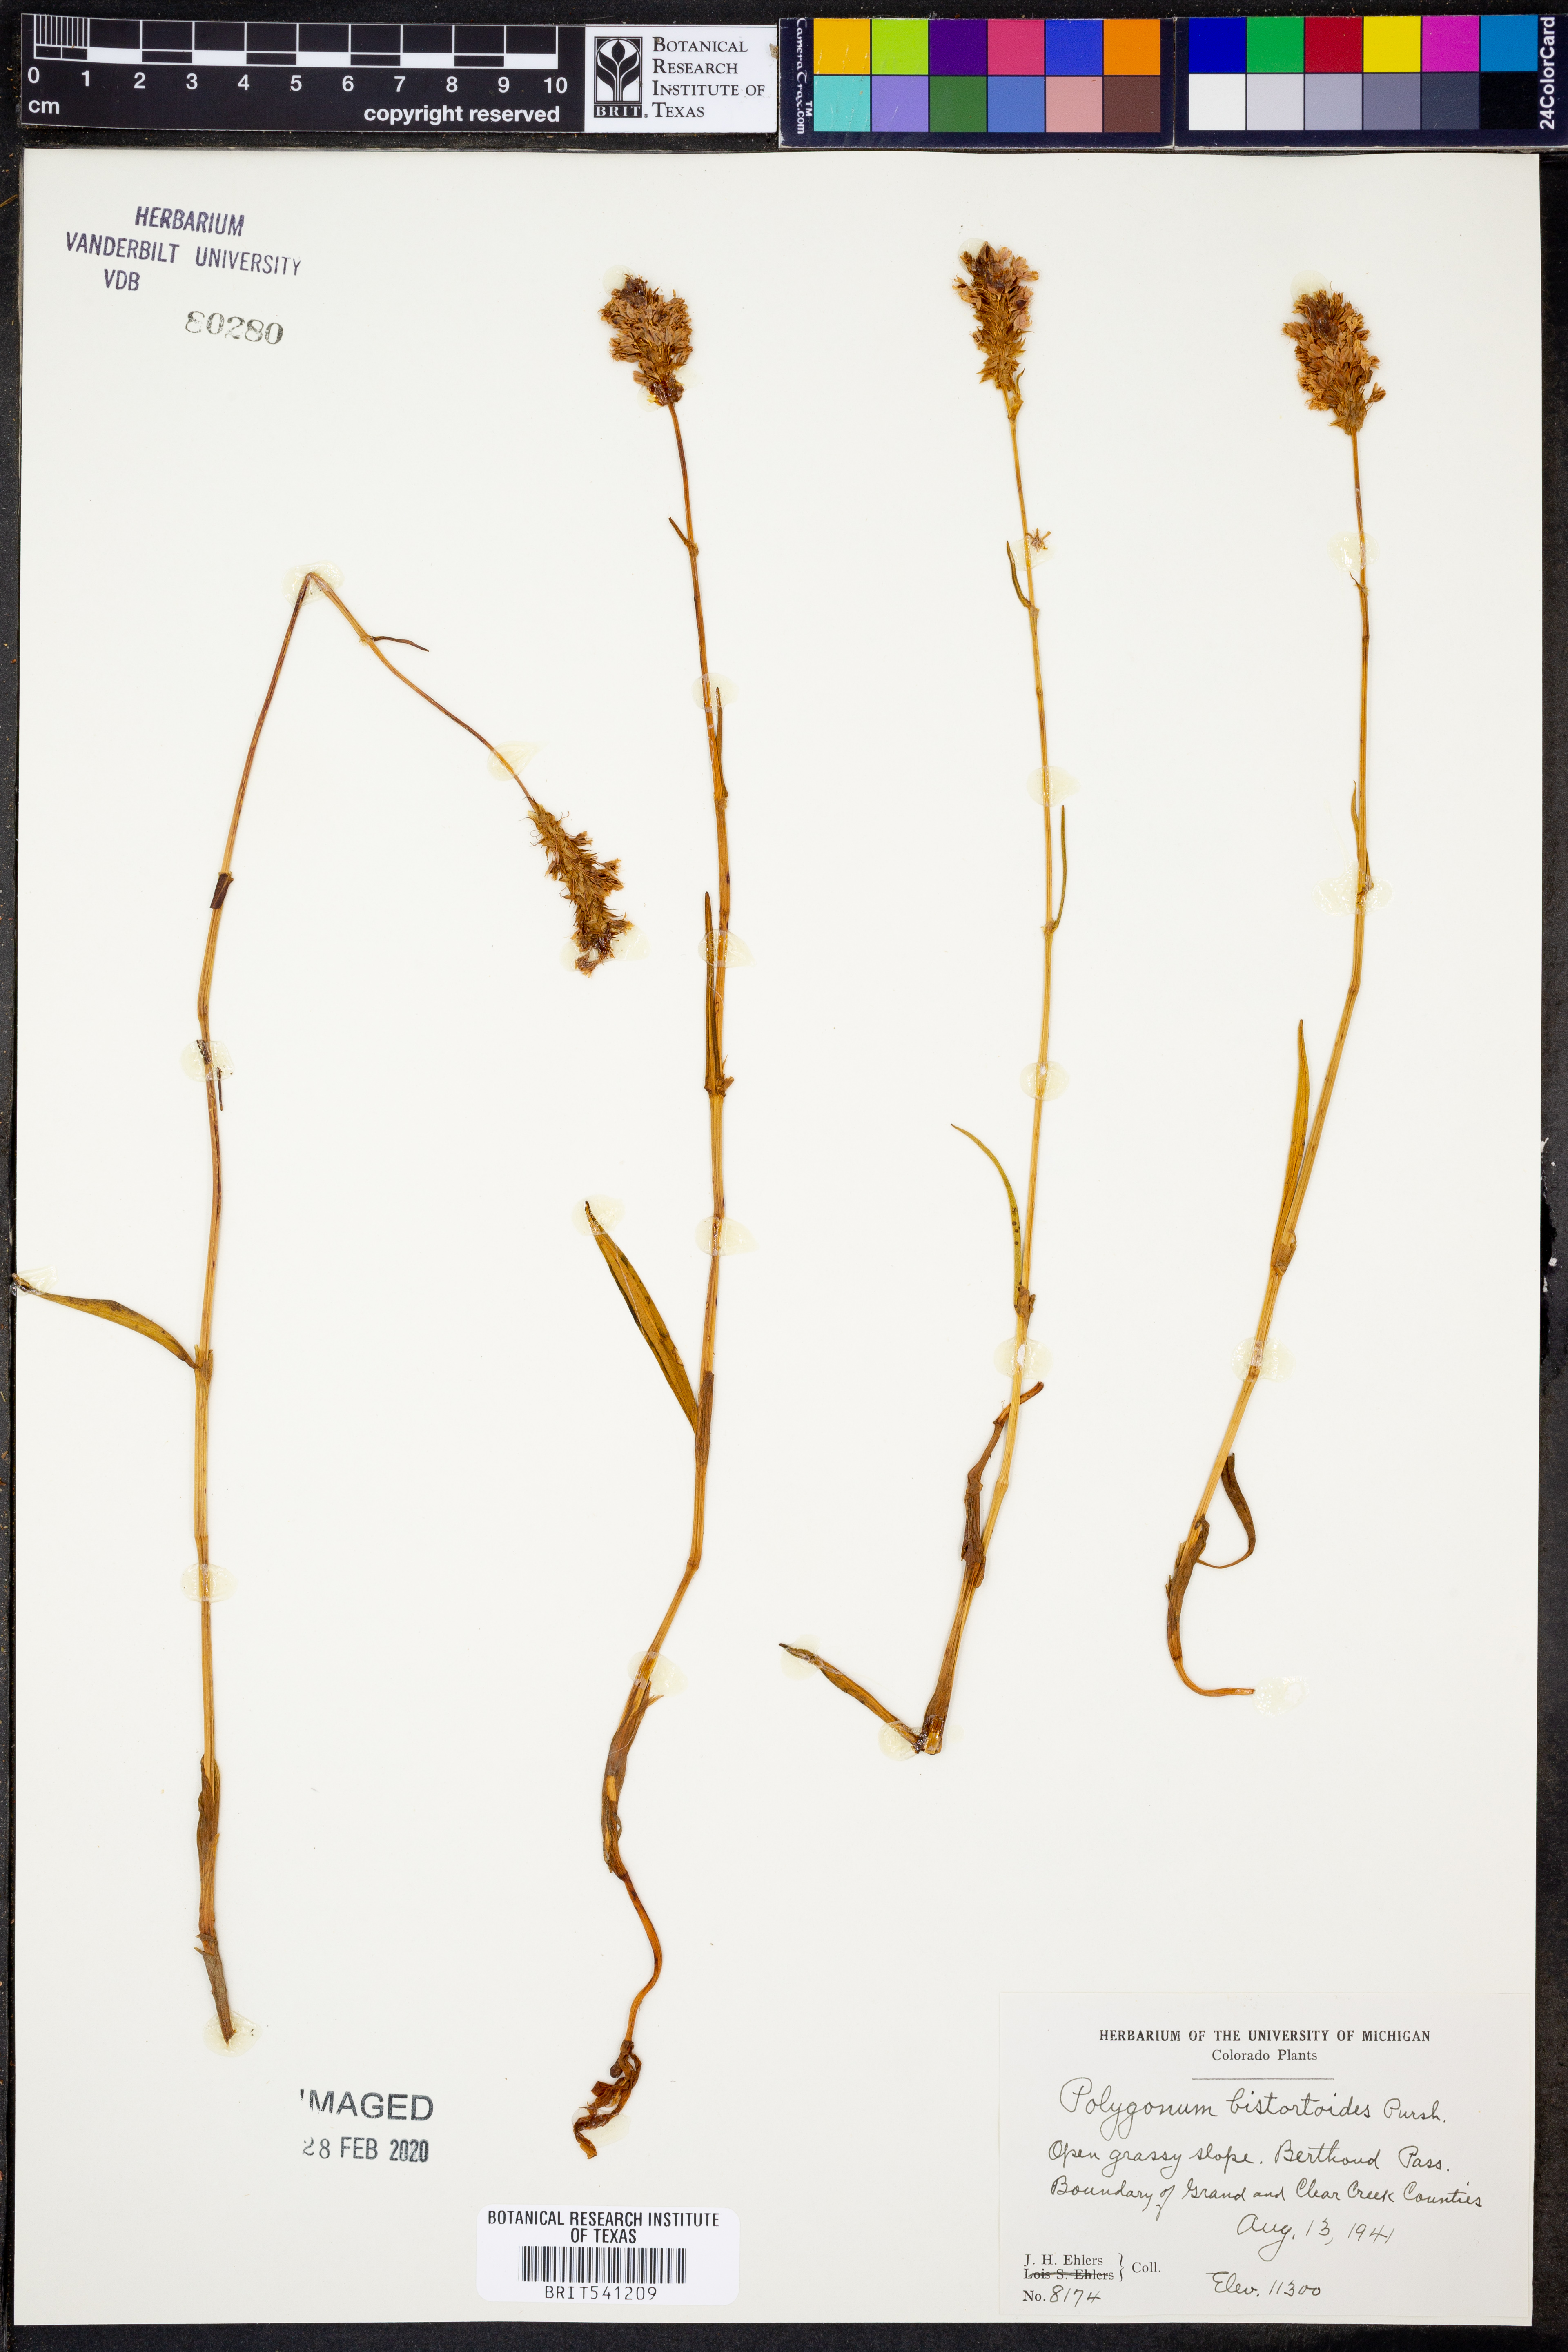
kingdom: Plantae
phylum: Tracheophyta
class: Magnoliopsida
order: Caryophyllales
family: Polygonaceae
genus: Bistorta
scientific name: Bistorta bistortoides
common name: American bistort
